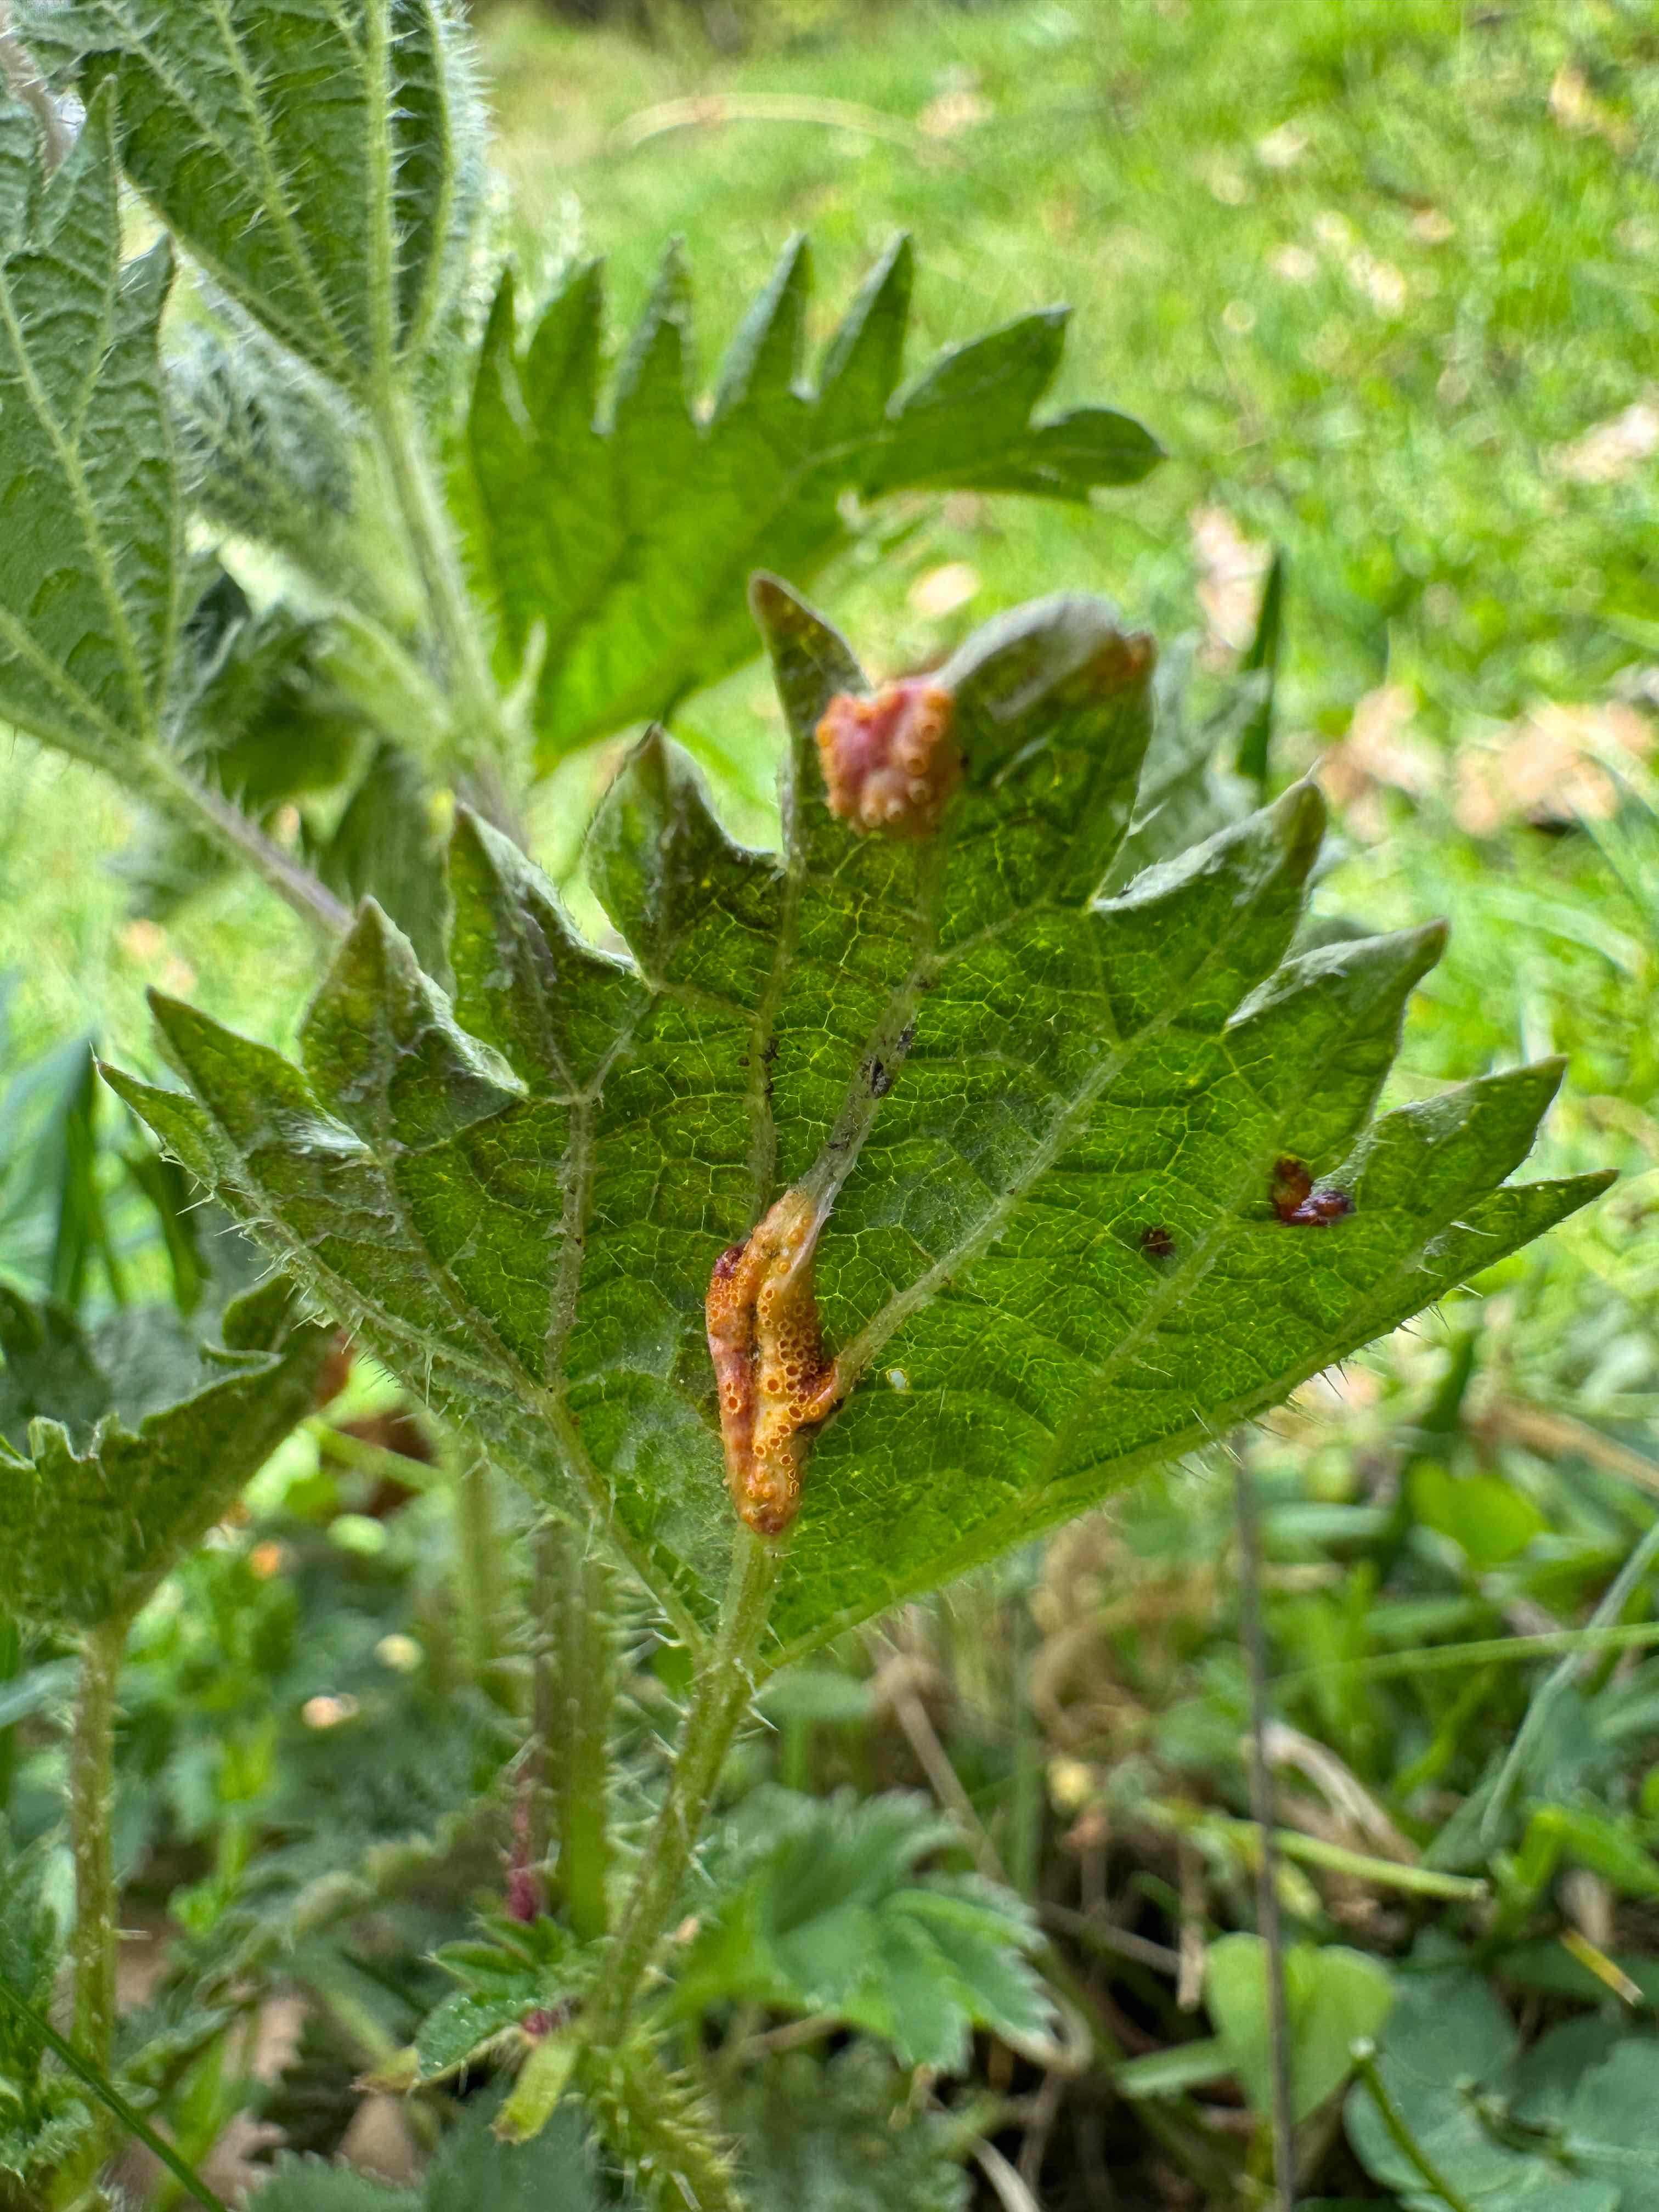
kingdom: Fungi
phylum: Basidiomycota
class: Pucciniomycetes
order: Pucciniales
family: Pucciniaceae
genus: Puccinia
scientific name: Puccinia urticata
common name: nældegalle-tvecellerust
